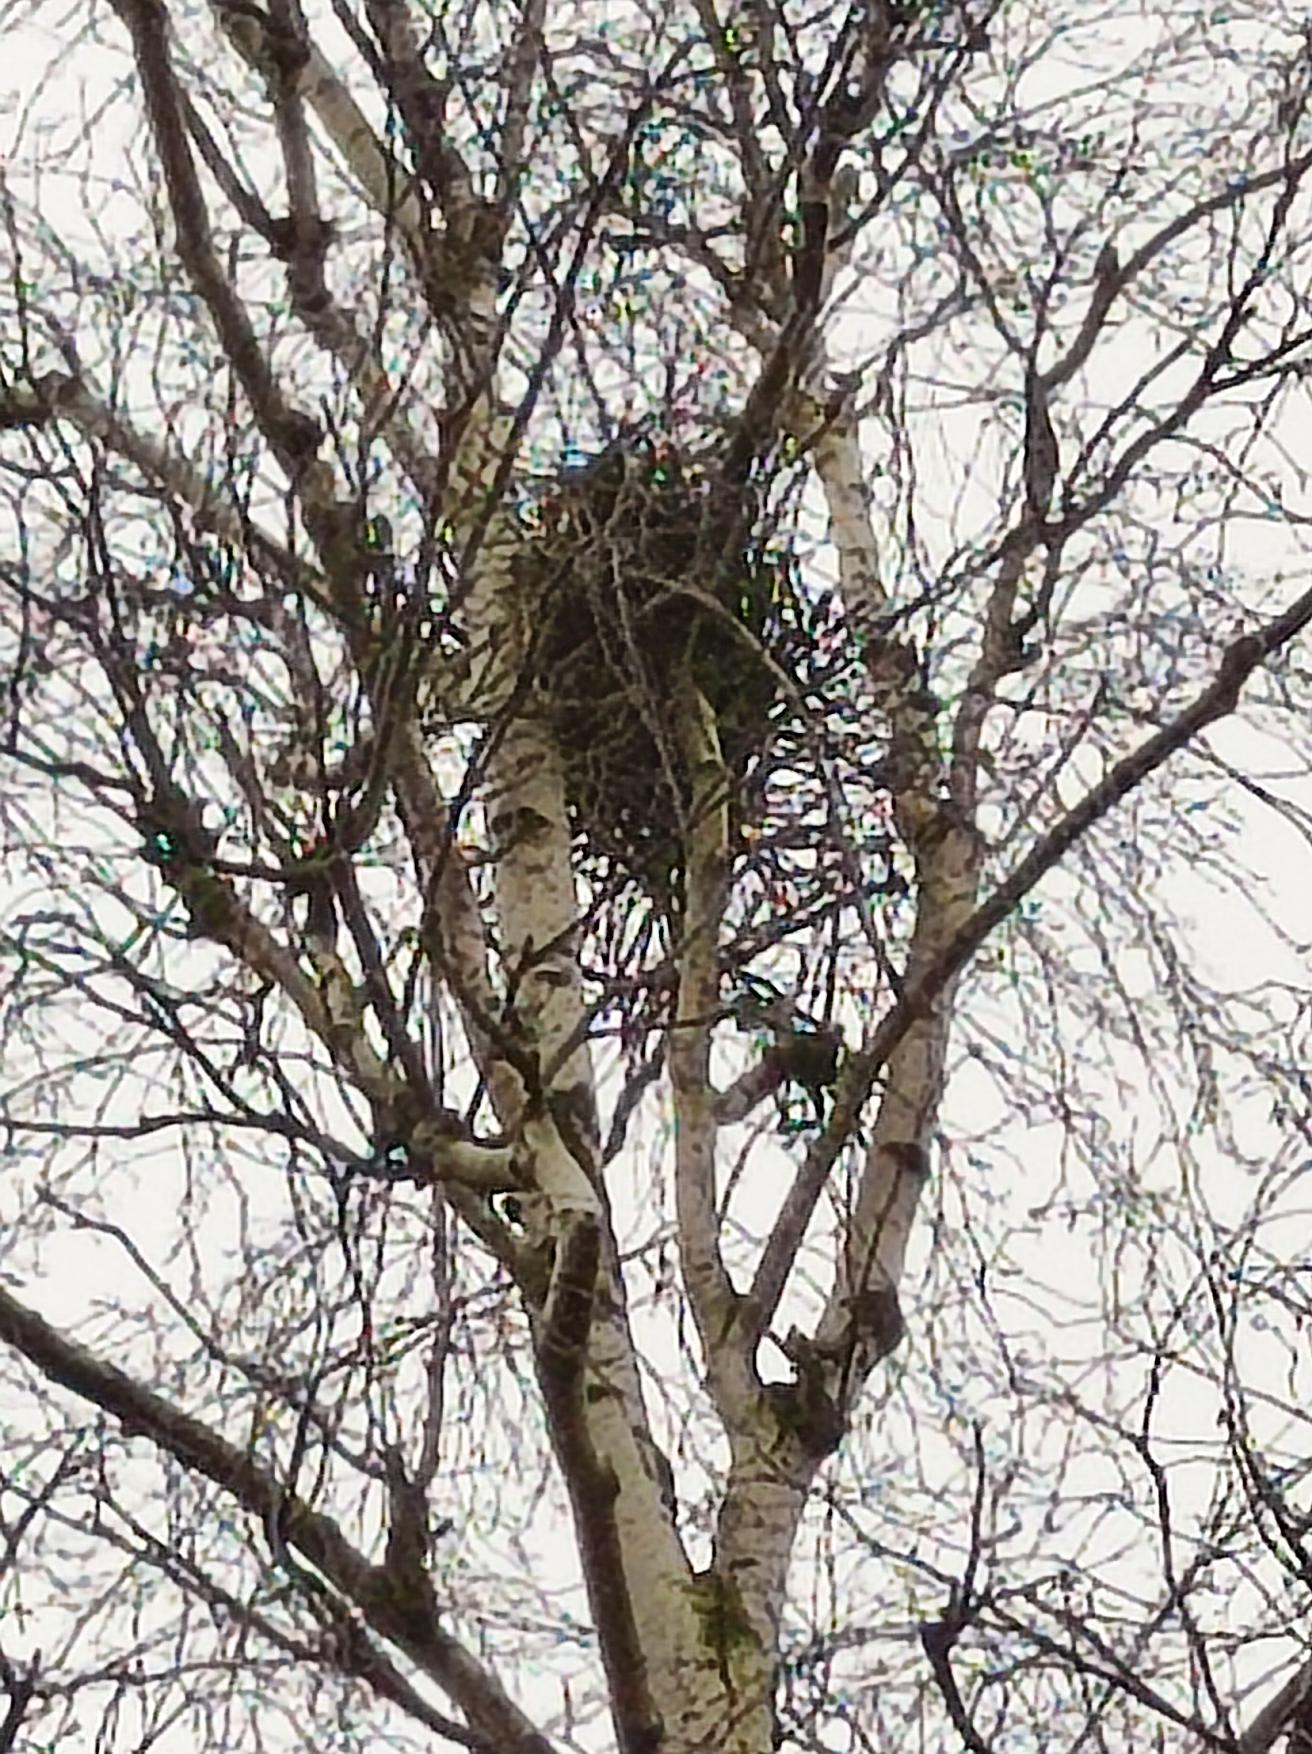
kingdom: Fungi
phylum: Ascomycota
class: Taphrinomycetes
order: Taphrinales
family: Taphrinaceae
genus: Taphrina
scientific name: Taphrina betulina
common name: Hekse-sækdug
